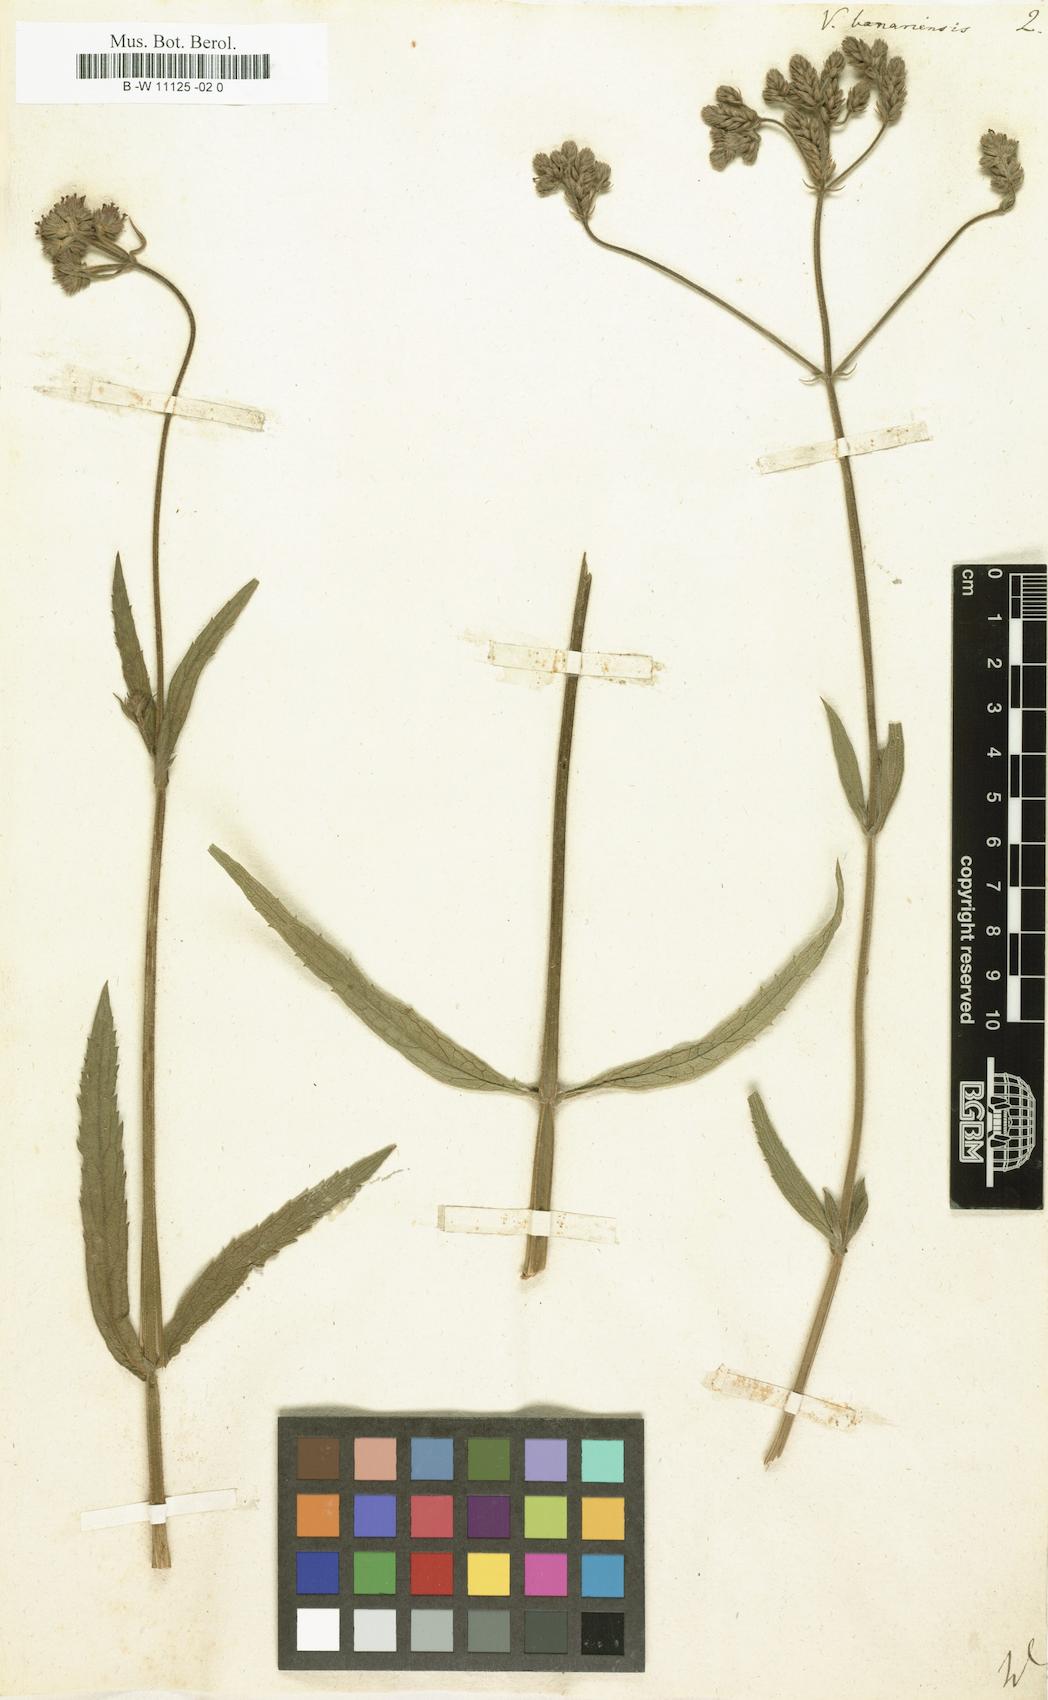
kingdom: Plantae
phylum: Tracheophyta
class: Magnoliopsida
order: Lamiales
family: Verbenaceae
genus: Verbena
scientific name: Verbena bonariensis
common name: Purpletop vervain
